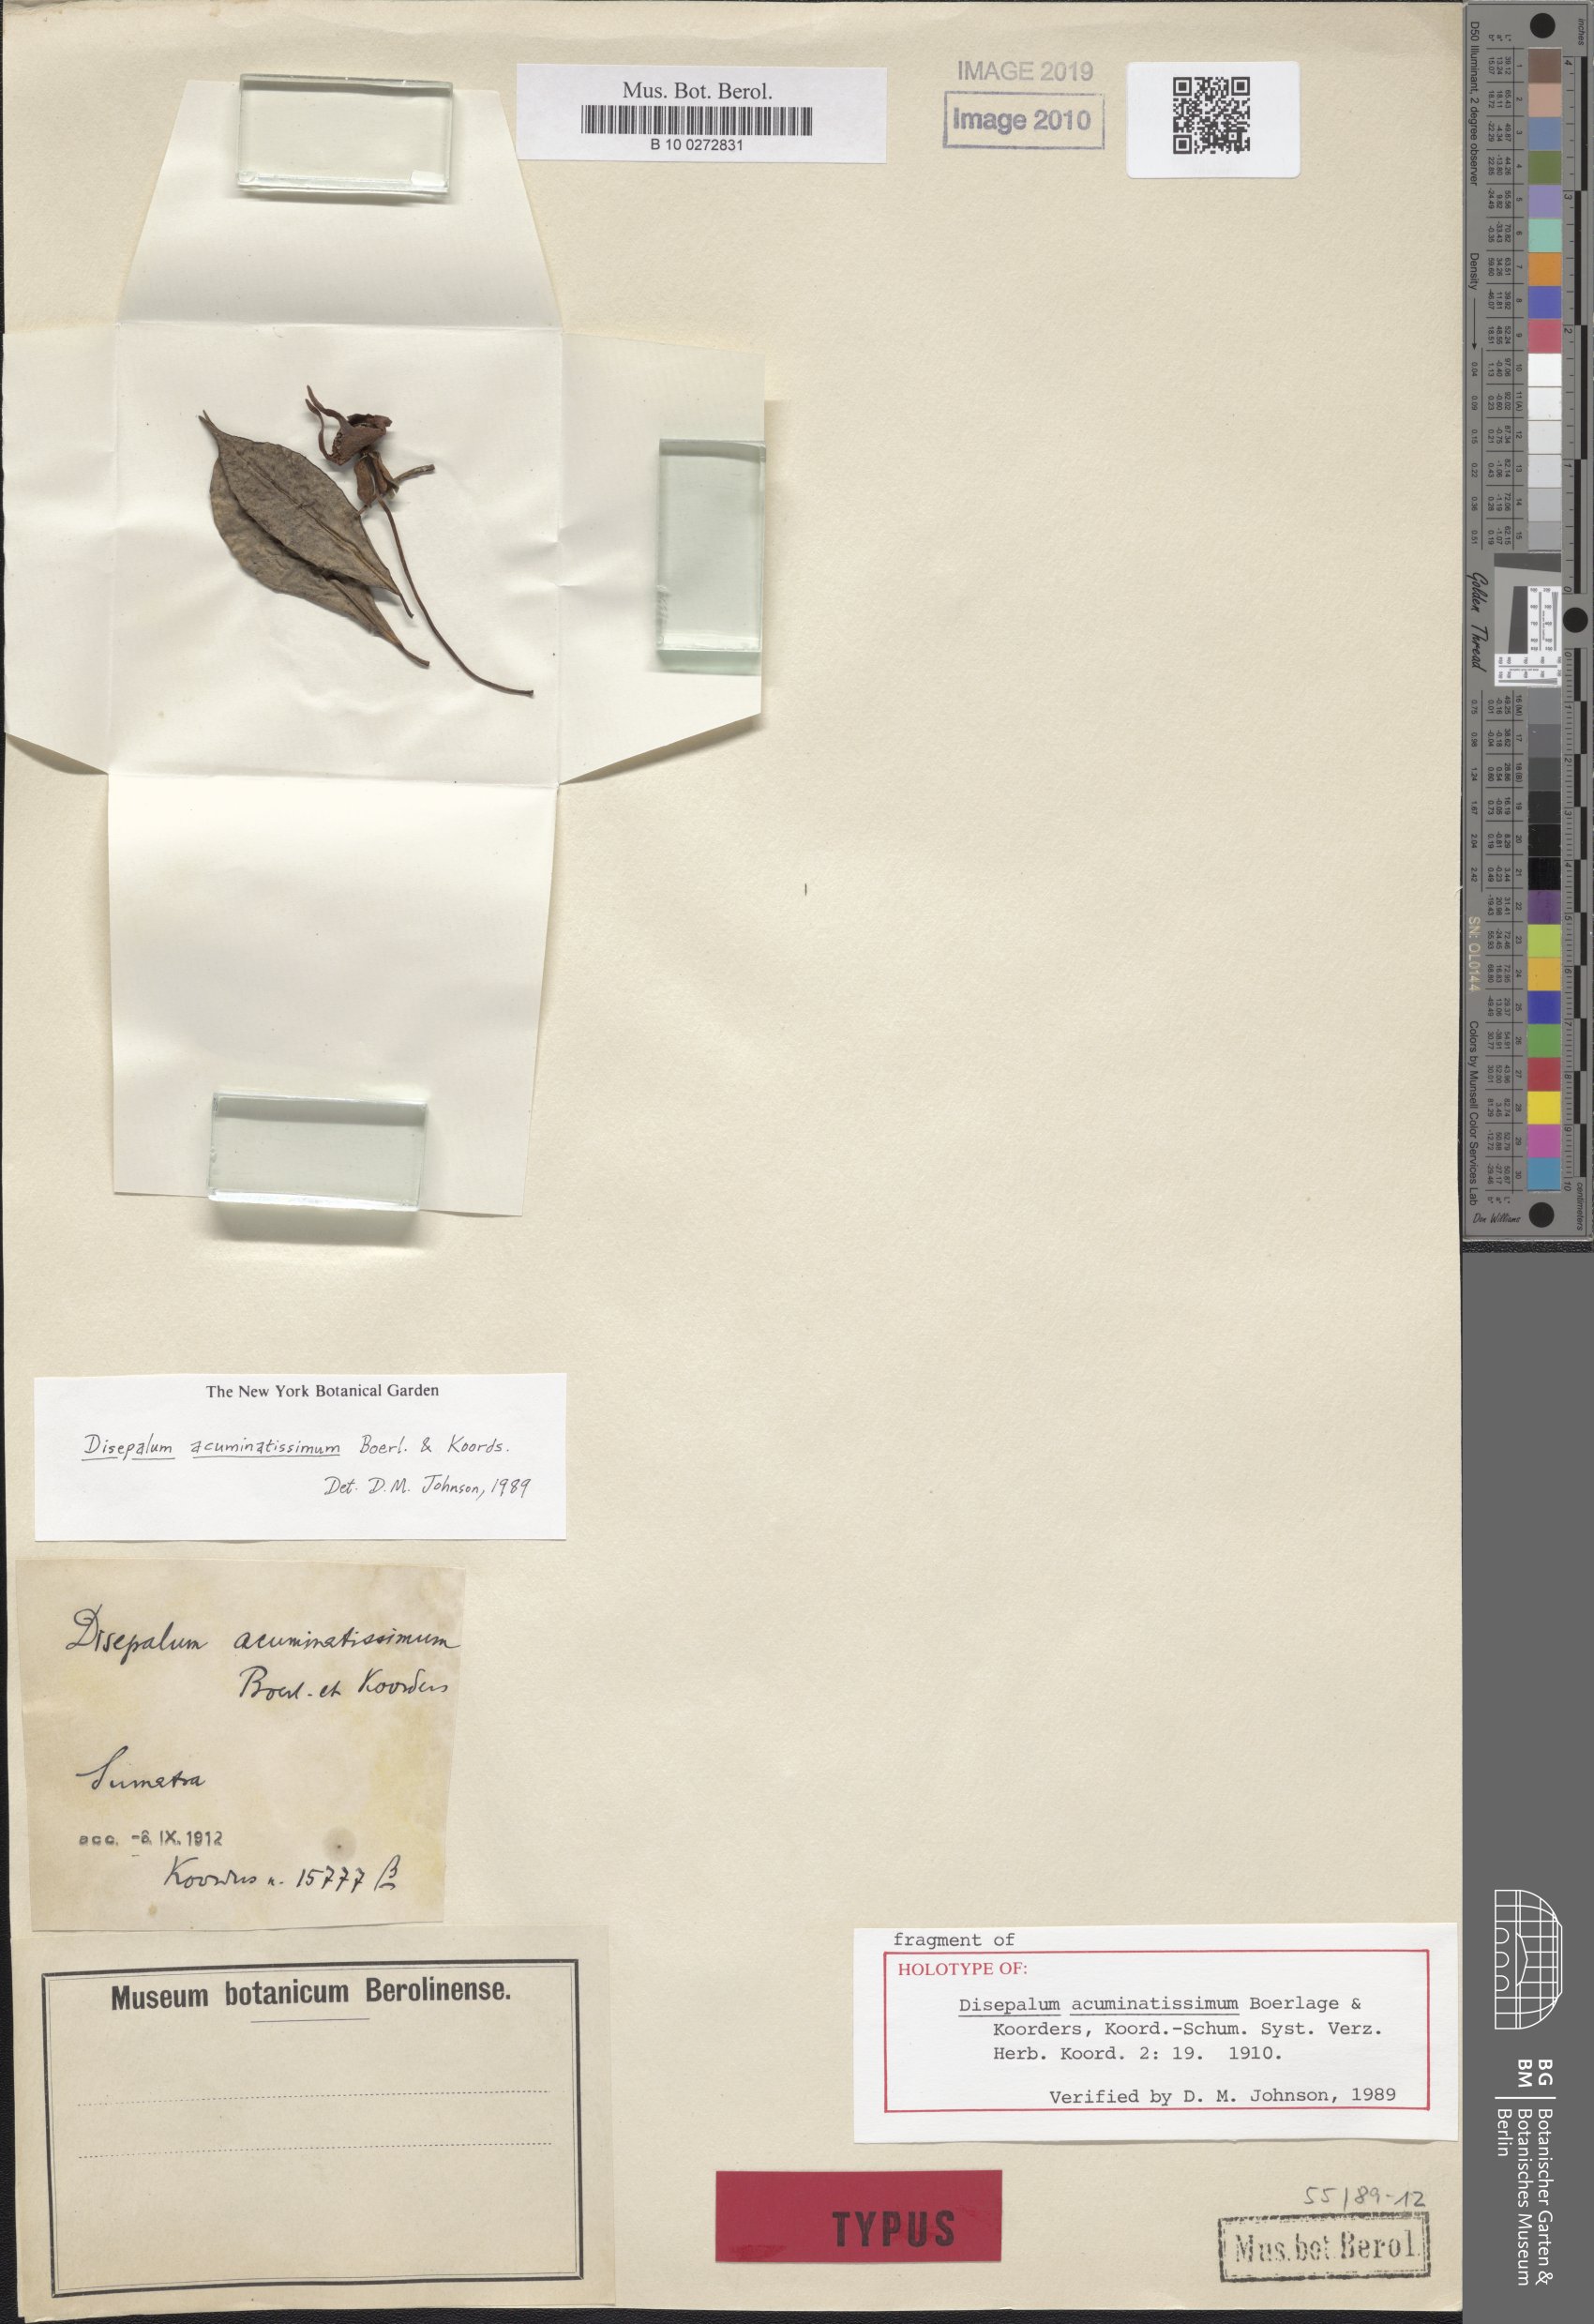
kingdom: Plantae
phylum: Tracheophyta
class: Magnoliopsida
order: Magnoliales
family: Annonaceae
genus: Disepalum
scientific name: Disepalum acuminatissimum
